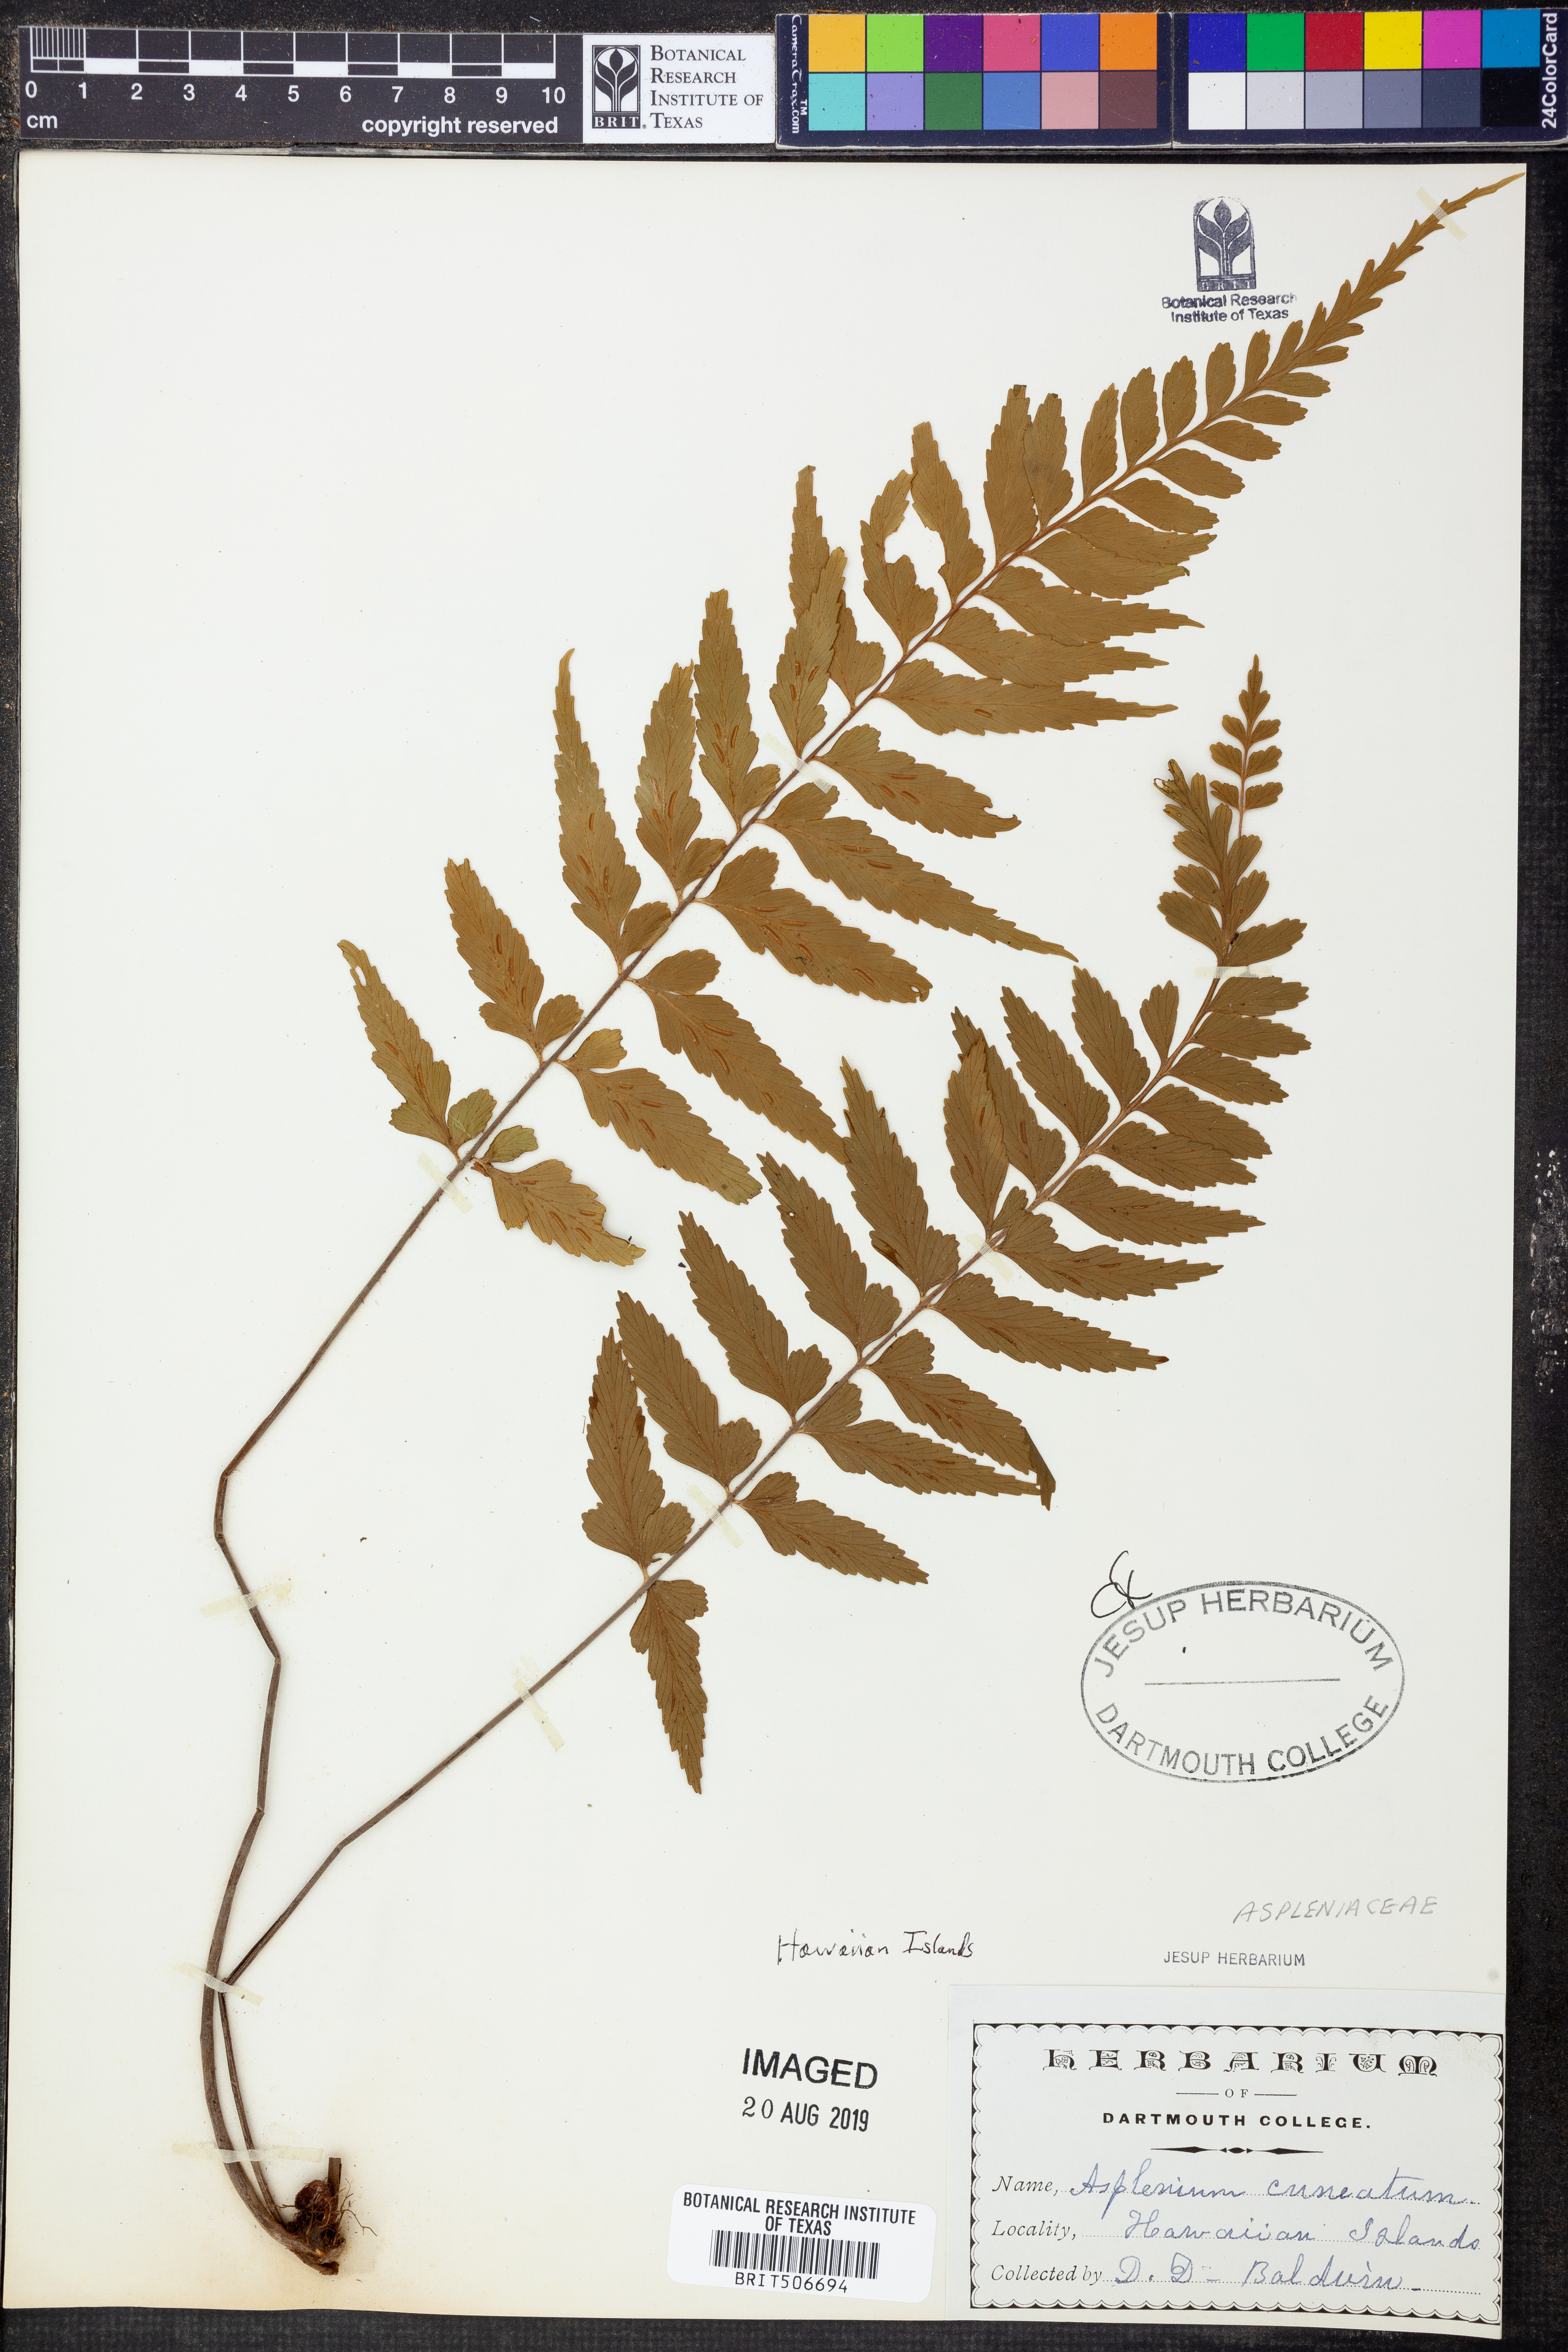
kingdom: Plantae
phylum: Tracheophyta
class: Polypodiopsida
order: Polypodiales
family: Aspleniaceae
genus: Asplenium
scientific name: Asplenium cuneatum
